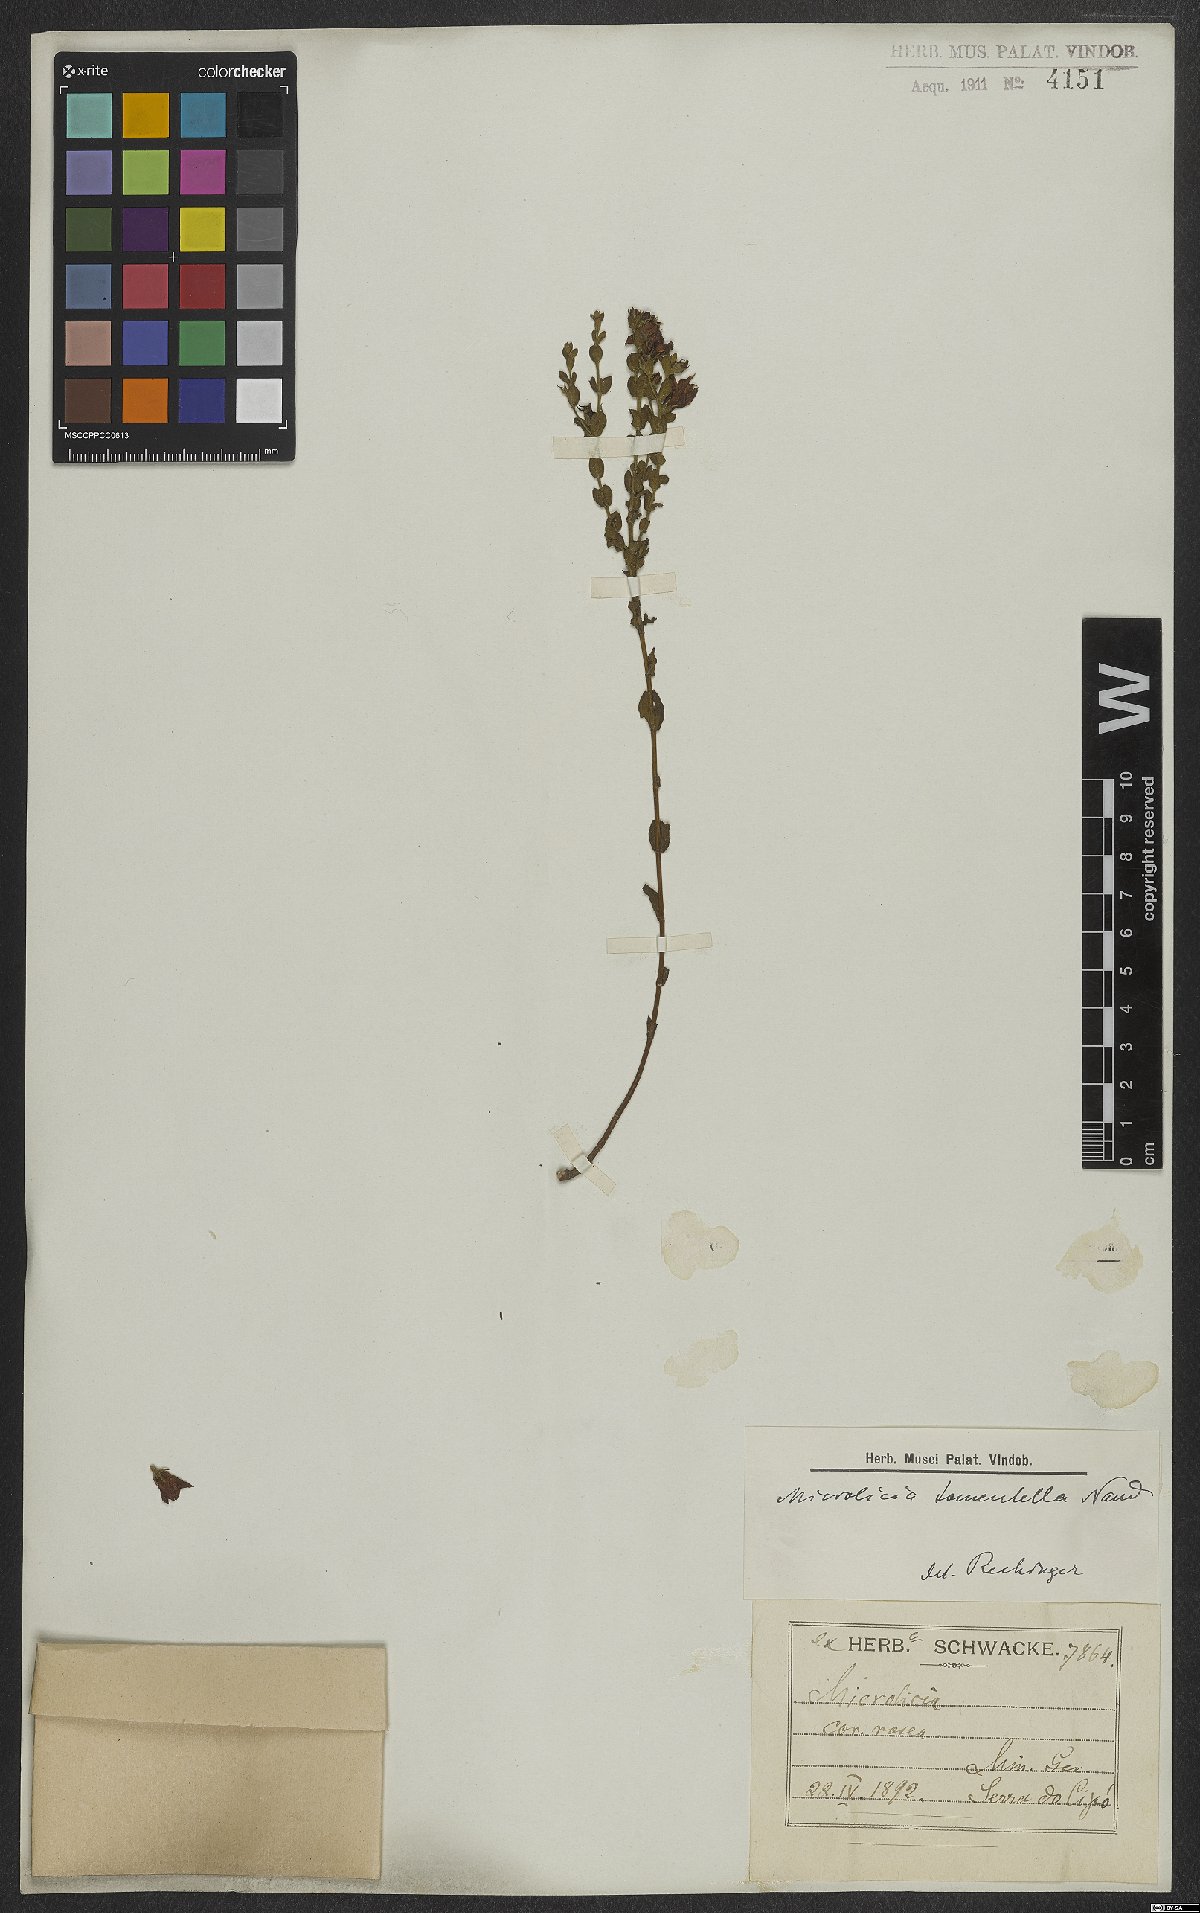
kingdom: Plantae
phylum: Tracheophyta
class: Magnoliopsida
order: Myrtales
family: Melastomataceae
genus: Microlicia
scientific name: Microlicia tomentella
